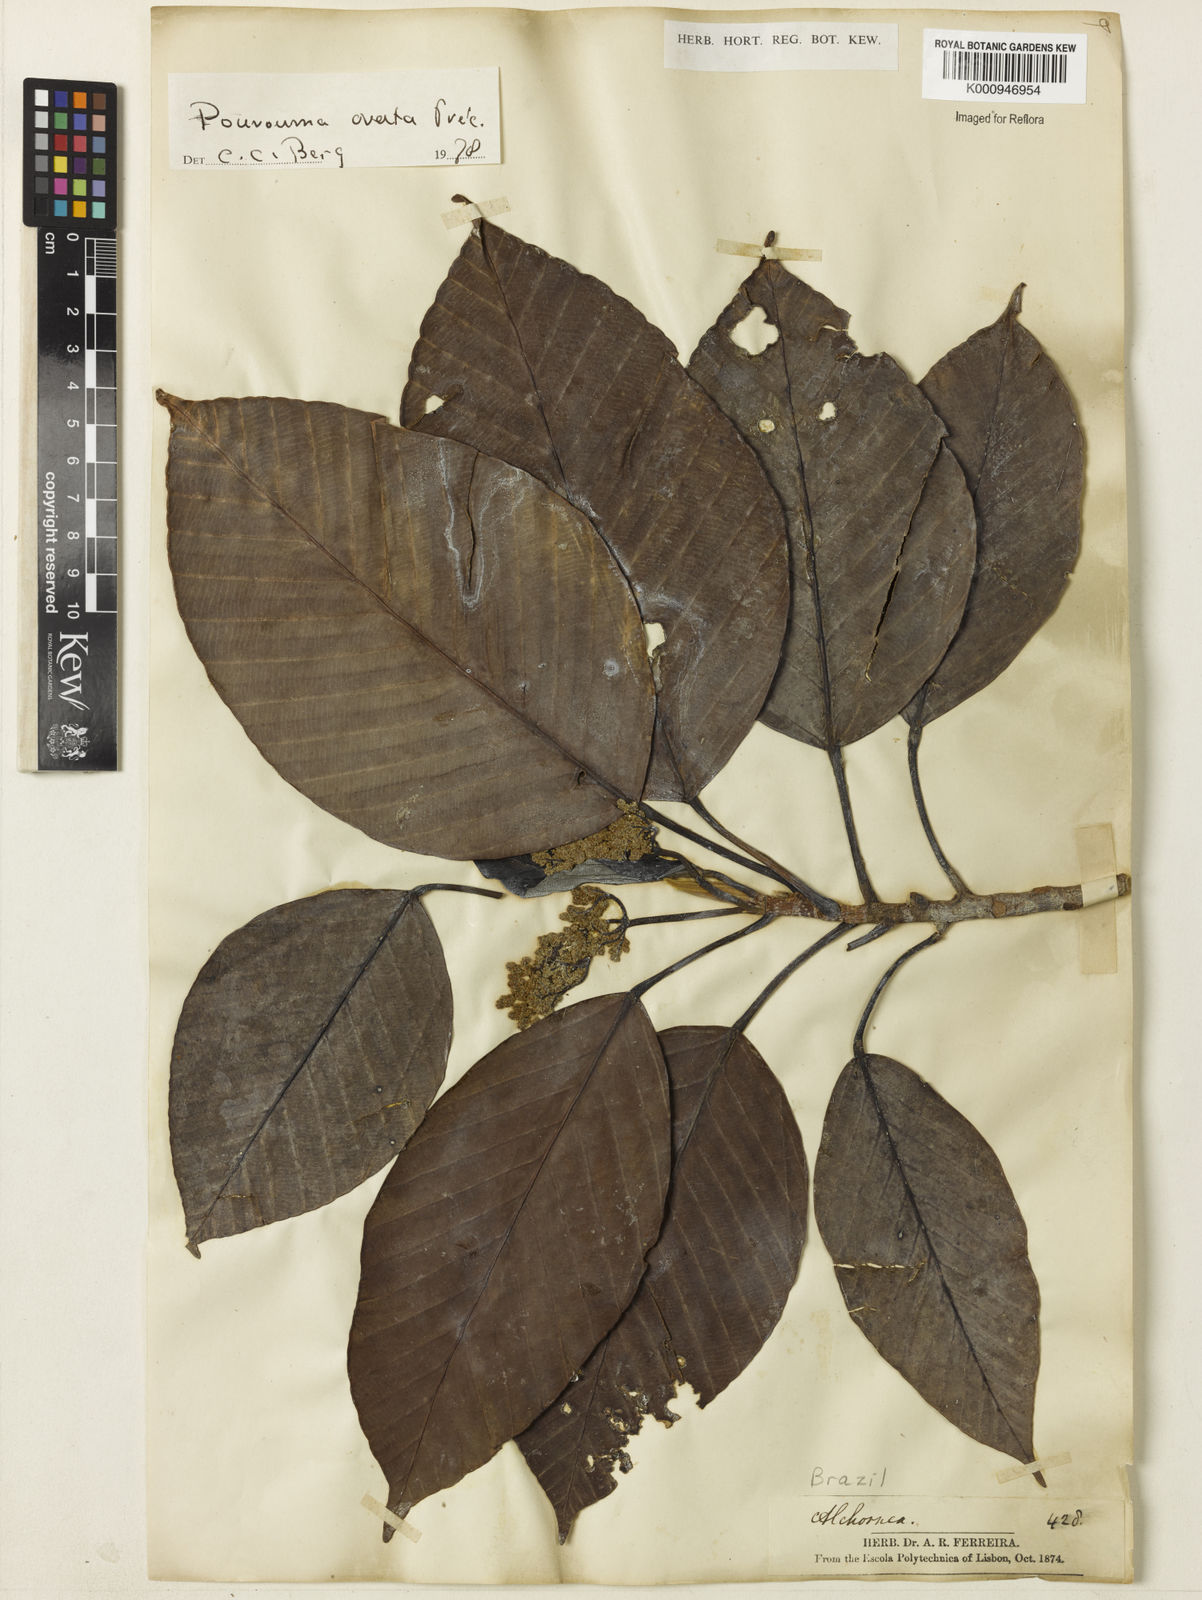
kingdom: Plantae
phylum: Tracheophyta
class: Magnoliopsida
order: Rosales
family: Urticaceae
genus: Pourouma
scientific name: Pourouma
